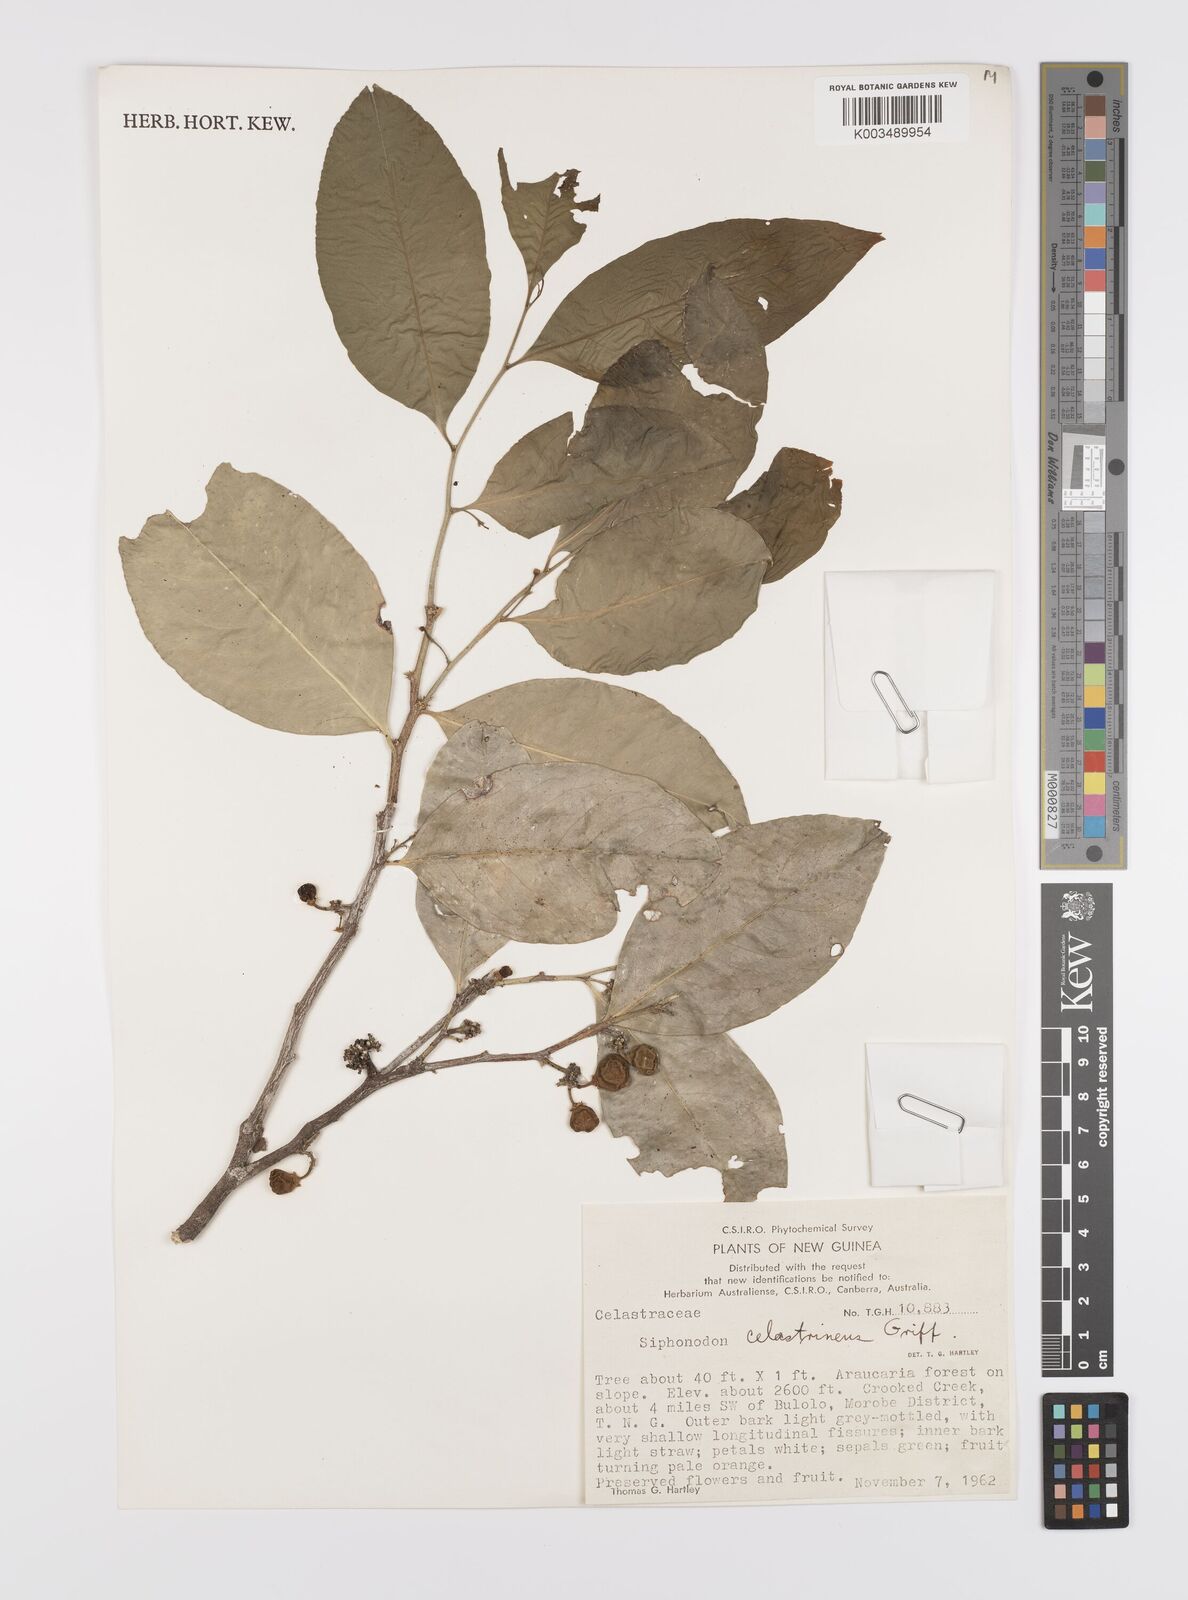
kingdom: Plantae
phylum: Tracheophyta
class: Magnoliopsida
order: Celastrales
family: Celastraceae
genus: Siphonodon
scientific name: Siphonodon celastrineus
